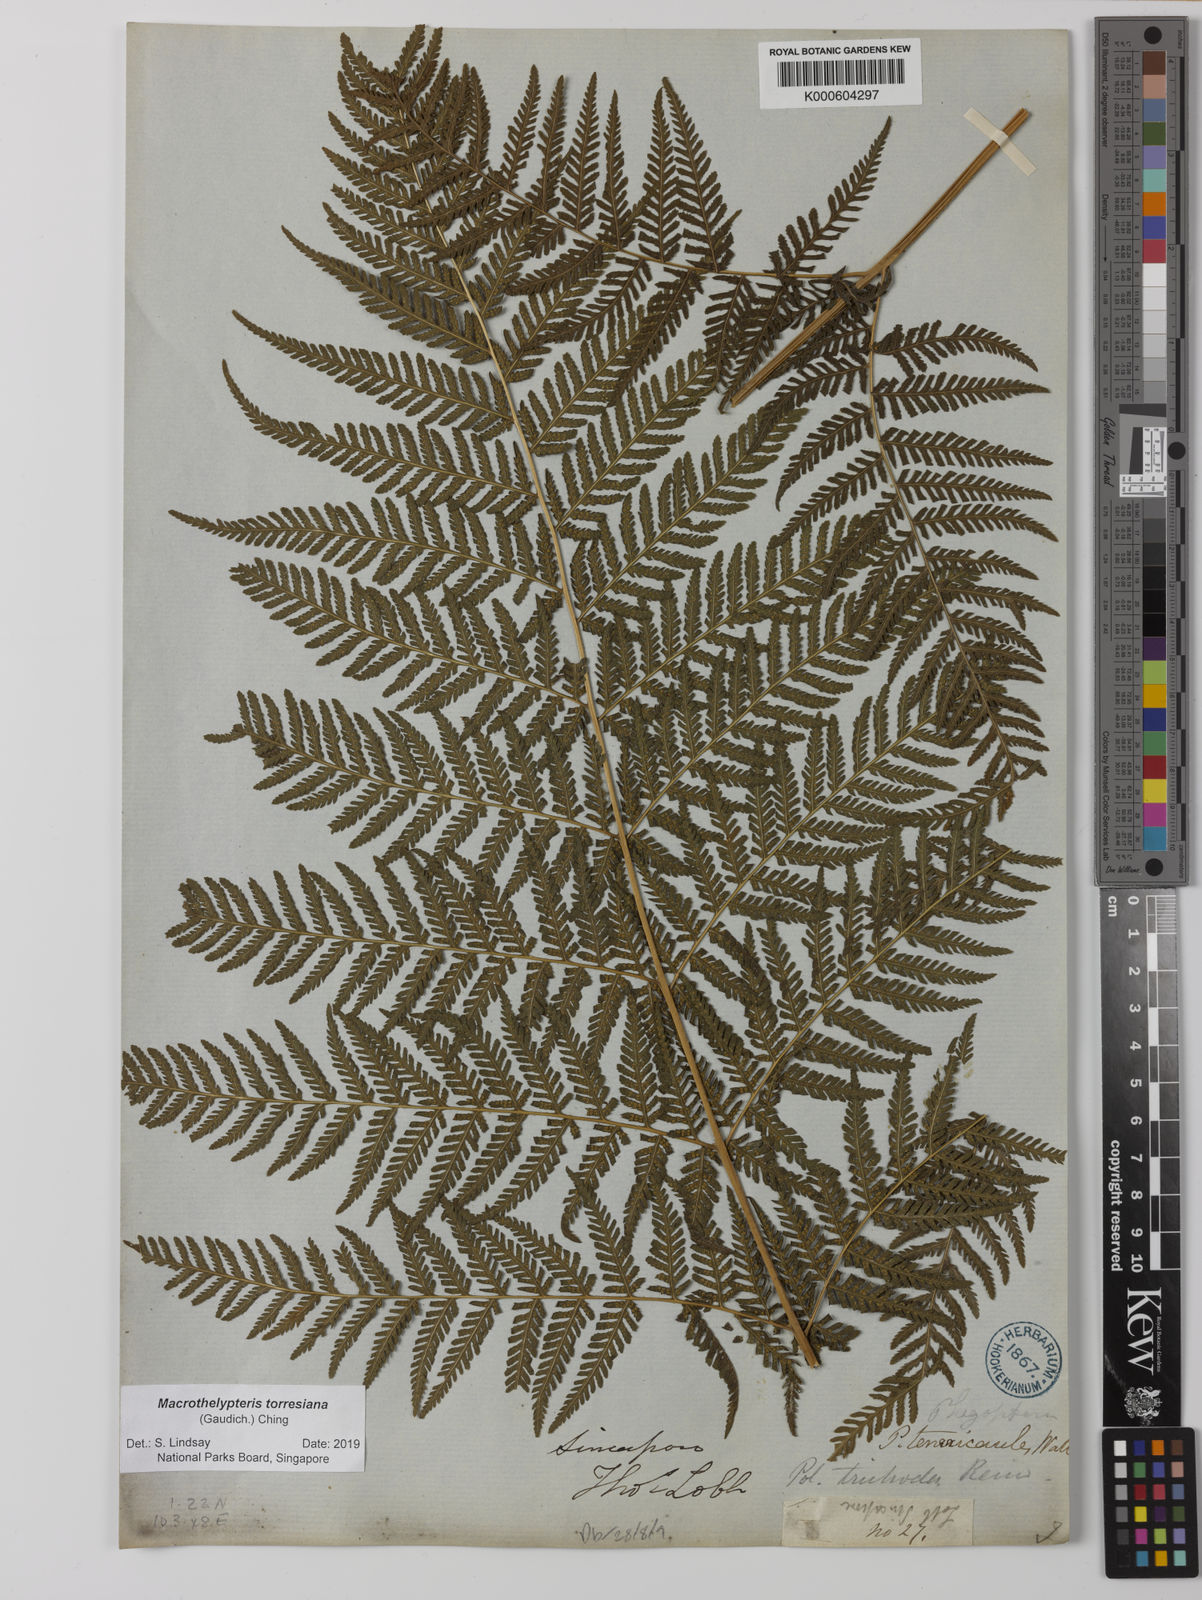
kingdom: Plantae
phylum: Tracheophyta
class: Polypodiopsida
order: Polypodiales
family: Thelypteridaceae
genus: Macrothelypteris
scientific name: Macrothelypteris torresiana
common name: Swordfern
